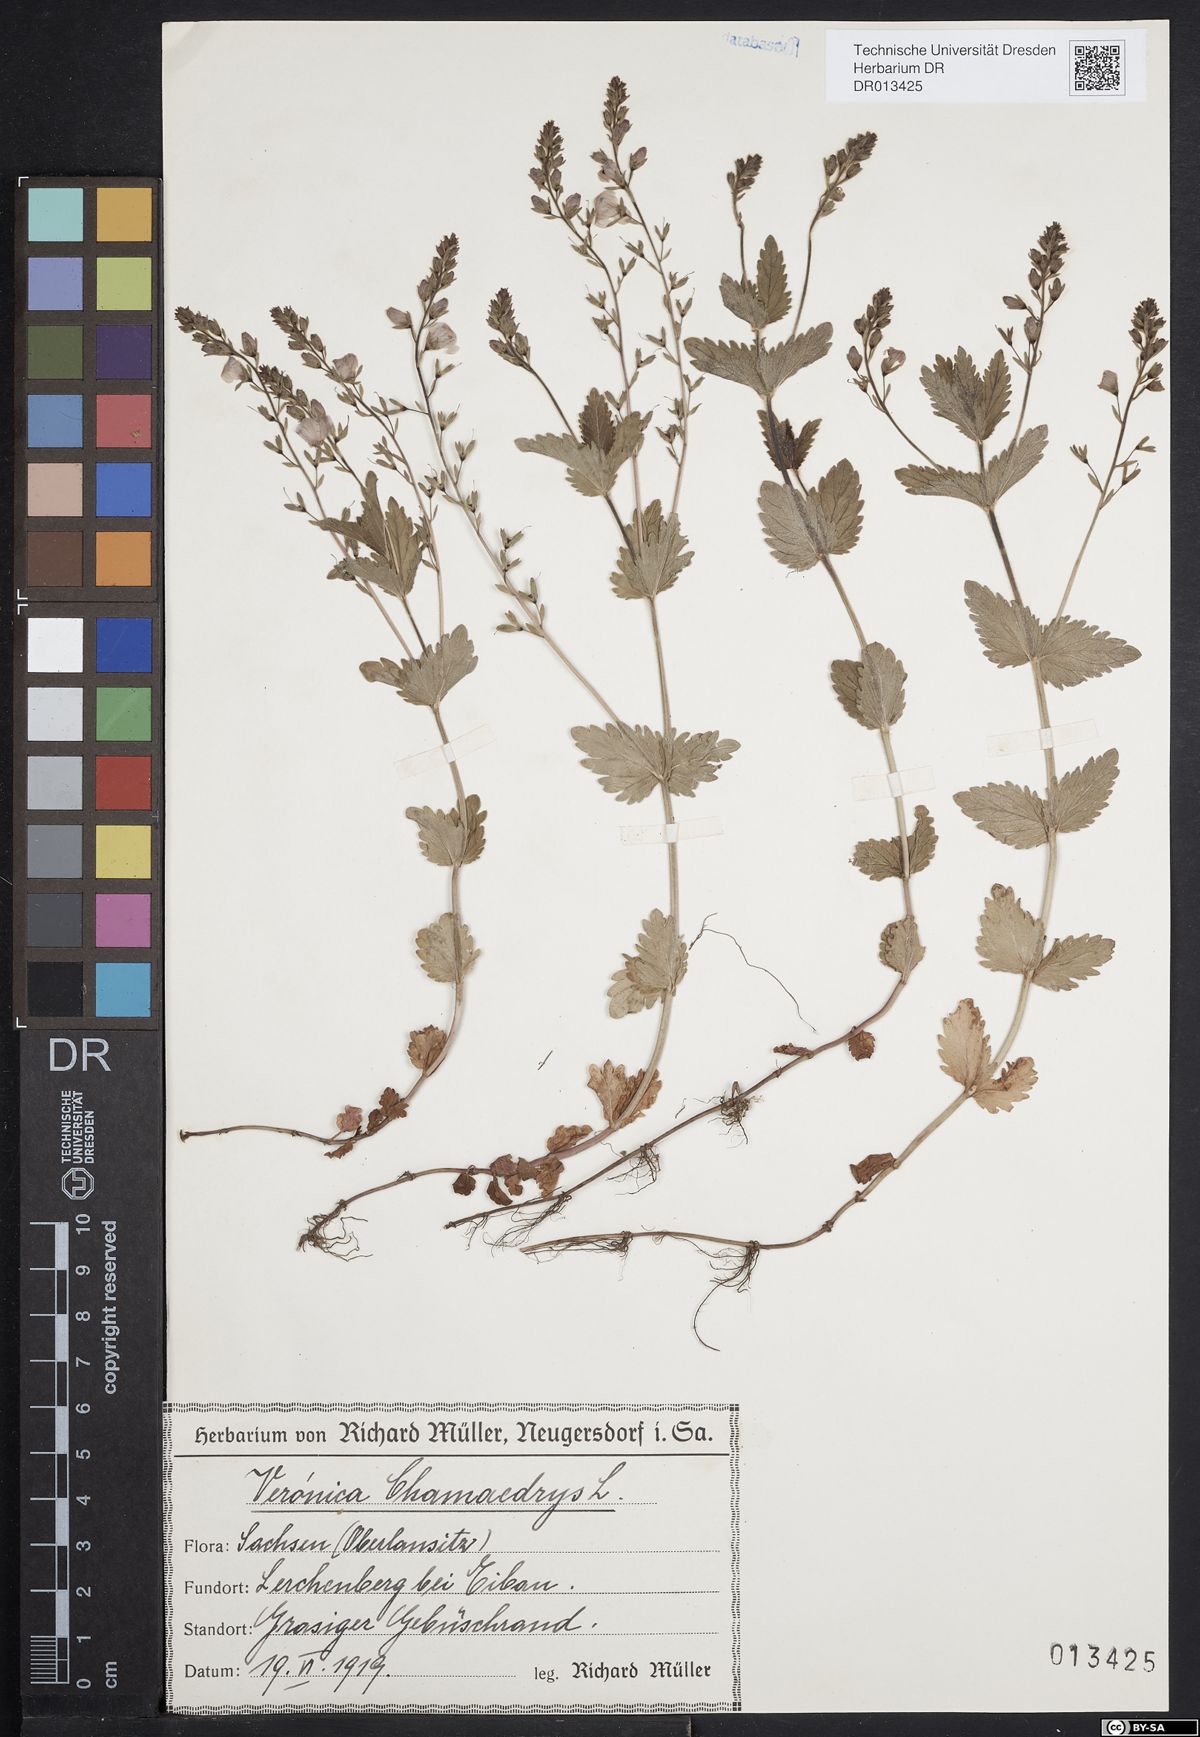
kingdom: Plantae
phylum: Tracheophyta
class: Magnoliopsida
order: Lamiales
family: Plantaginaceae
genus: Veronica
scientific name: Veronica chamaedrys
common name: Germander speedwell
